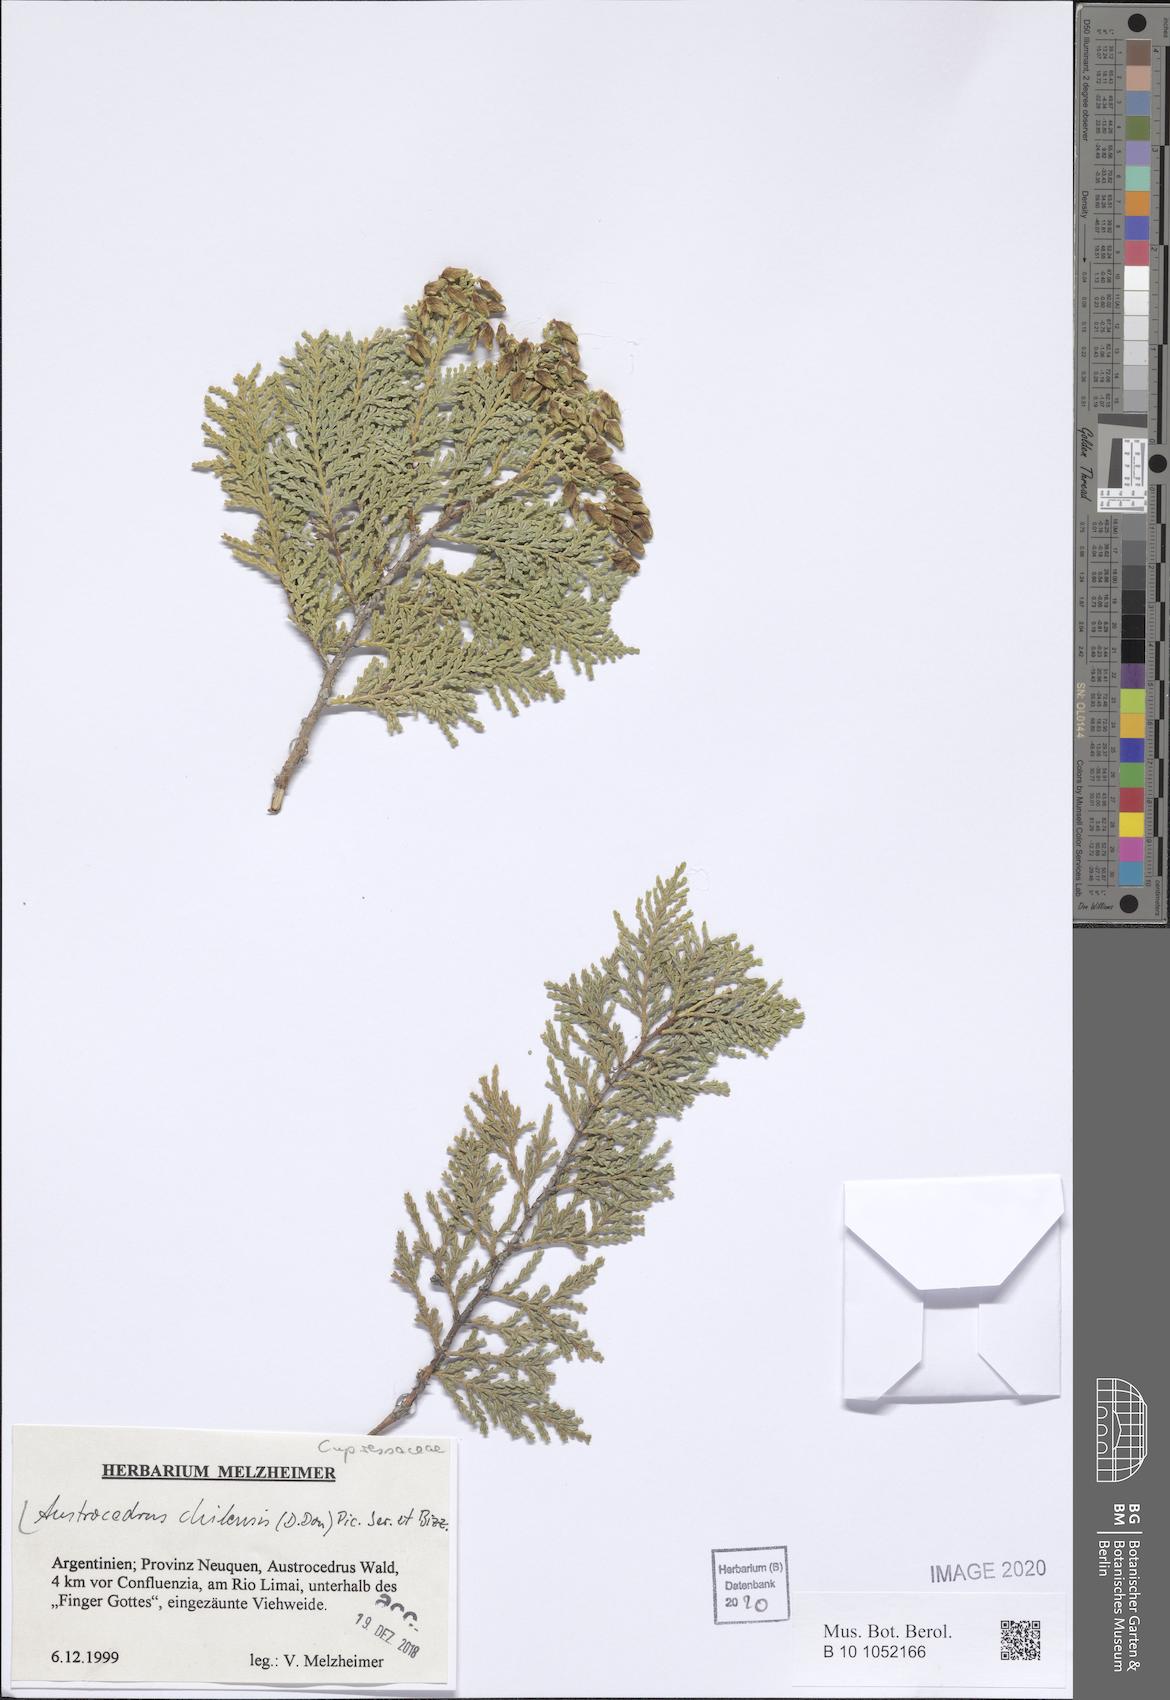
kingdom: Plantae
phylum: Tracheophyta
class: Pinopsida
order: Pinales
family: Cupressaceae
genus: Austrocedrus
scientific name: Austrocedrus chilensis
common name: Chilean incense-cedar
